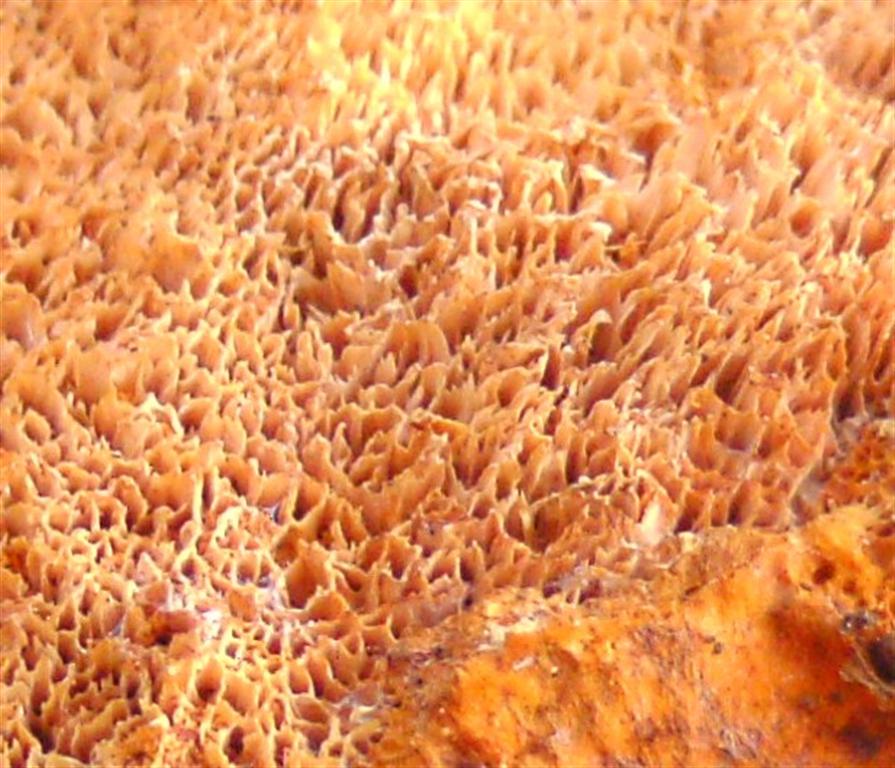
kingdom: Fungi
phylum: Basidiomycota
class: Agaricomycetes
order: Polyporales
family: Pycnoporellaceae
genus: Pycnoporellus
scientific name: Pycnoporellus fulgens
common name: flammeporesvamp
